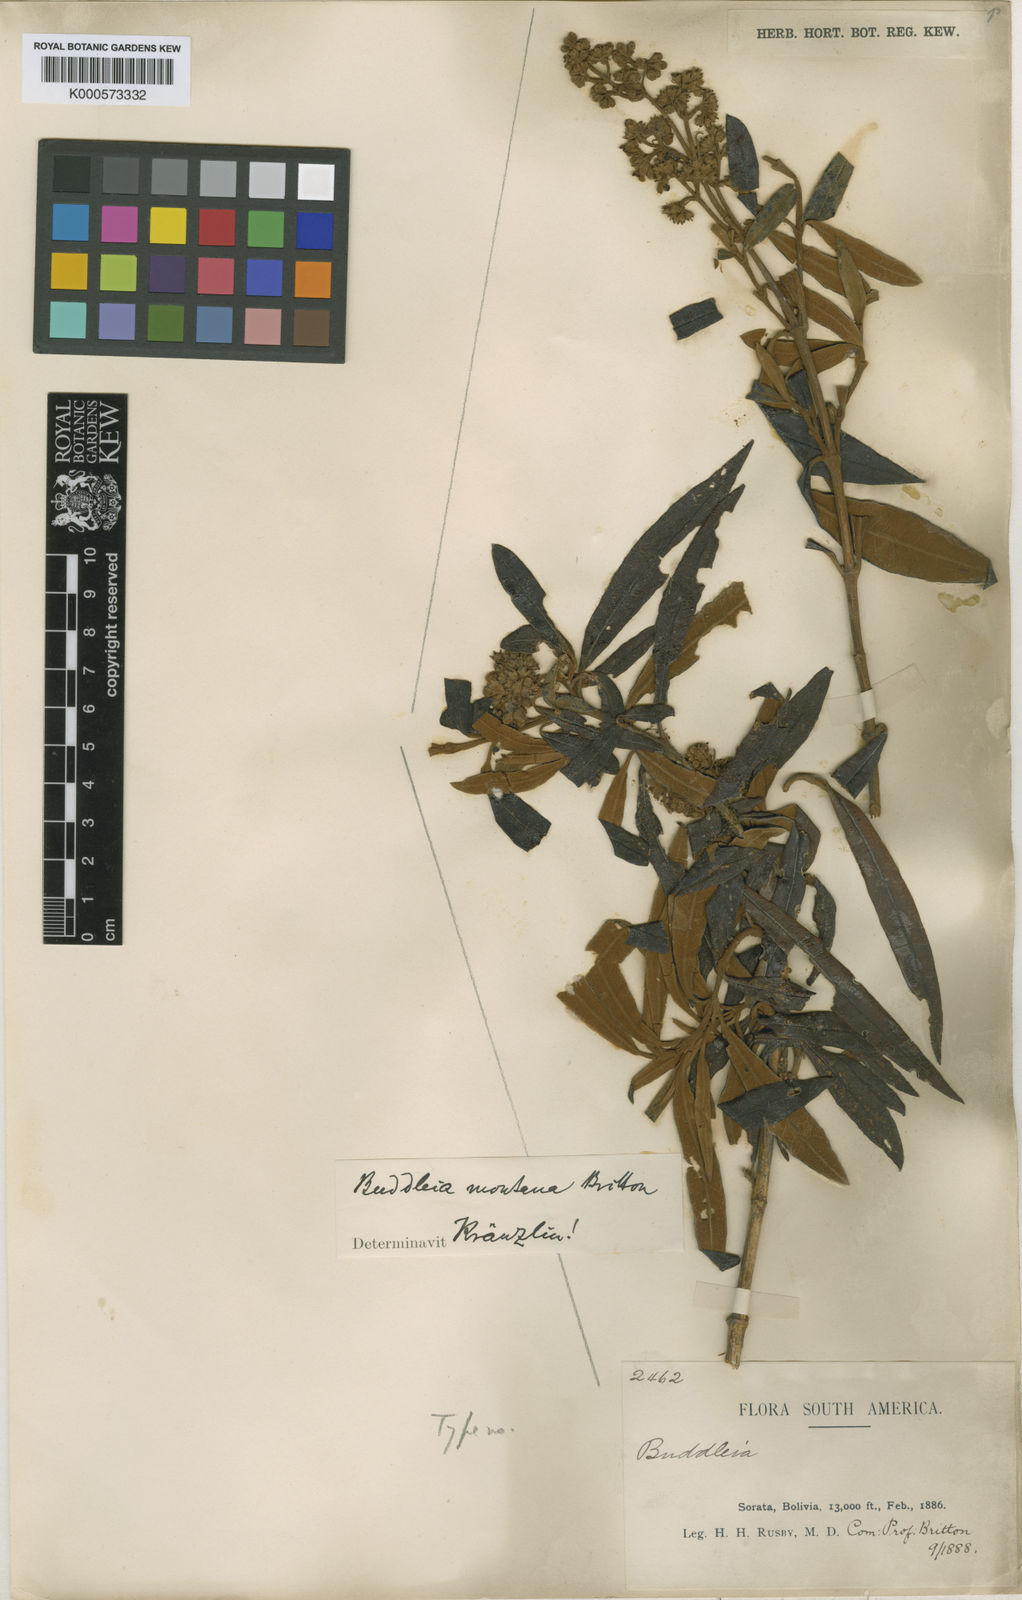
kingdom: Plantae
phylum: Tracheophyta
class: Magnoliopsida
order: Lamiales
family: Scrophulariaceae
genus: Buddleja
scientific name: Buddleja montana
